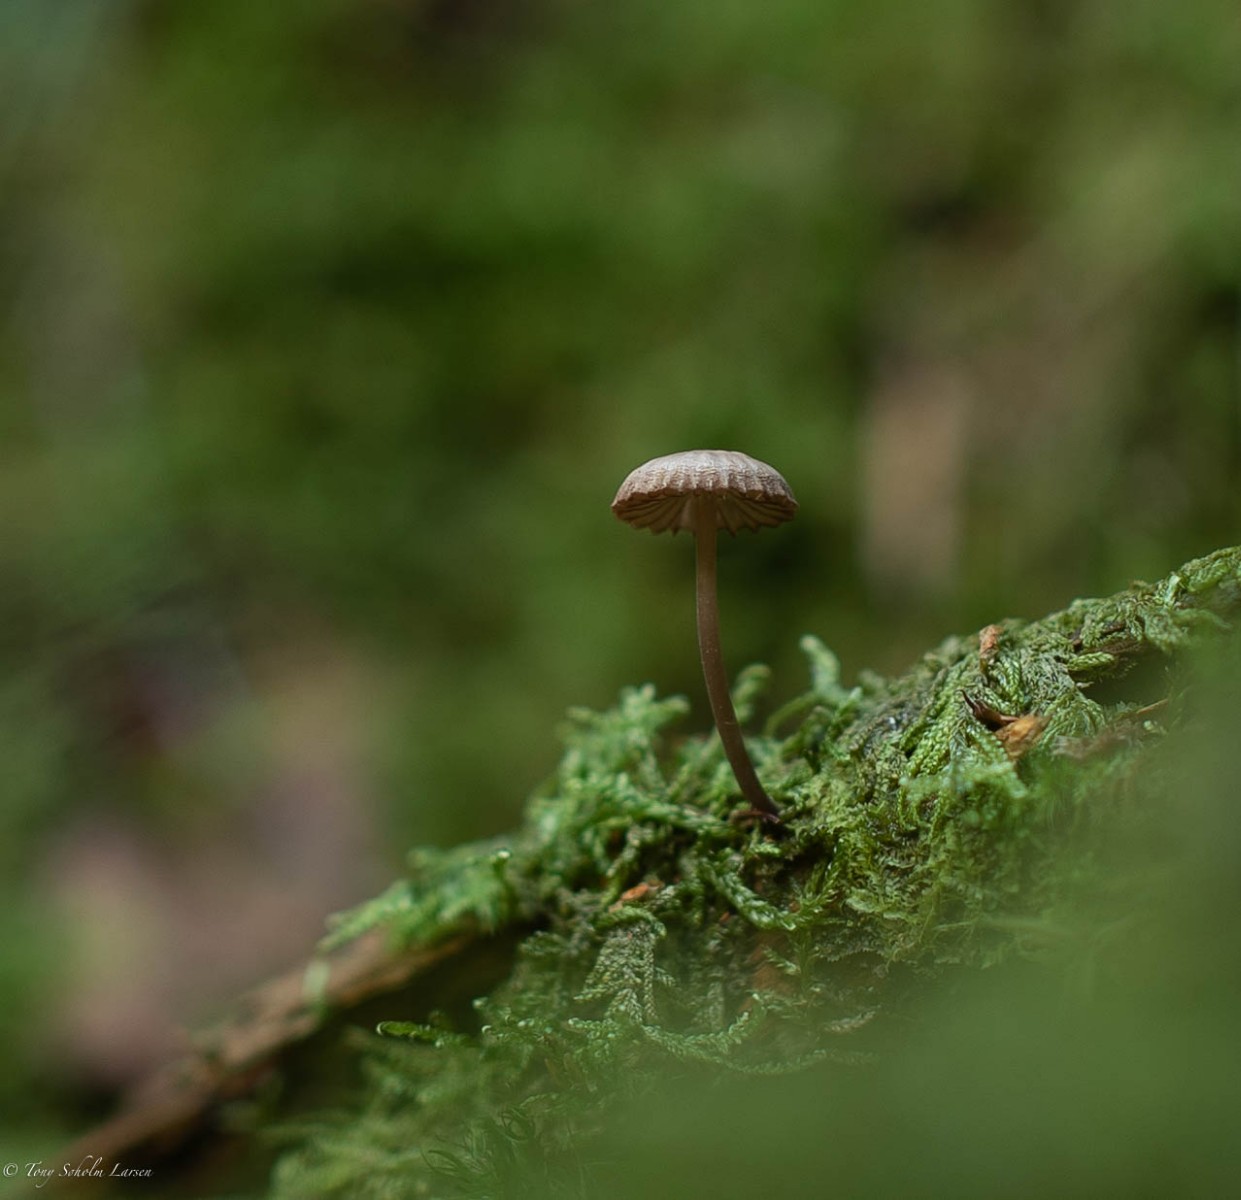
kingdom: Fungi
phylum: Basidiomycota
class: Agaricomycetes
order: Agaricales
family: Mycenaceae
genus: Mycena
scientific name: Mycena
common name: huesvamp
